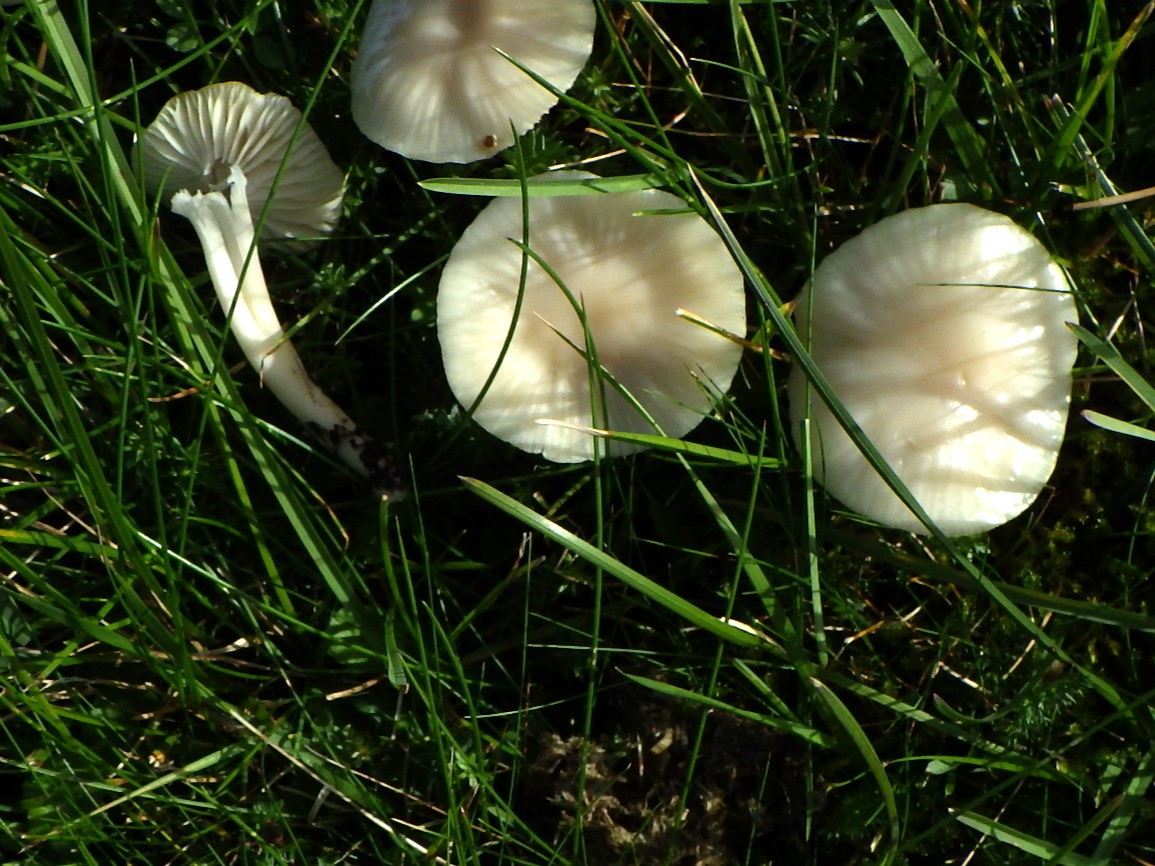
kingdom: Fungi
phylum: Basidiomycota
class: Agaricomycetes
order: Agaricales
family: Hygrophoraceae
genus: Cuphophyllus
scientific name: Cuphophyllus virgineus
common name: snehvid vokshat
